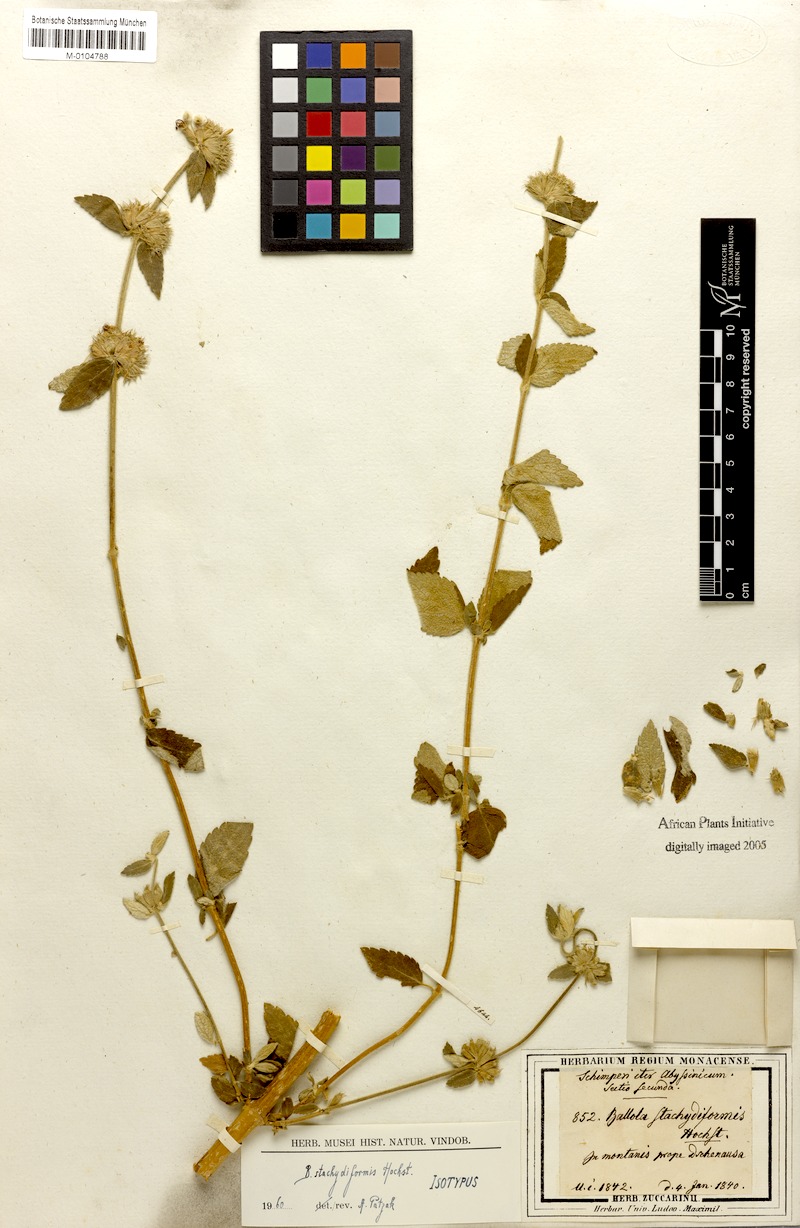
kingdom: Plantae
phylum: Tracheophyta
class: Magnoliopsida
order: Lamiales
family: Lamiaceae
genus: Ballota
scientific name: Ballota stachydiformis
